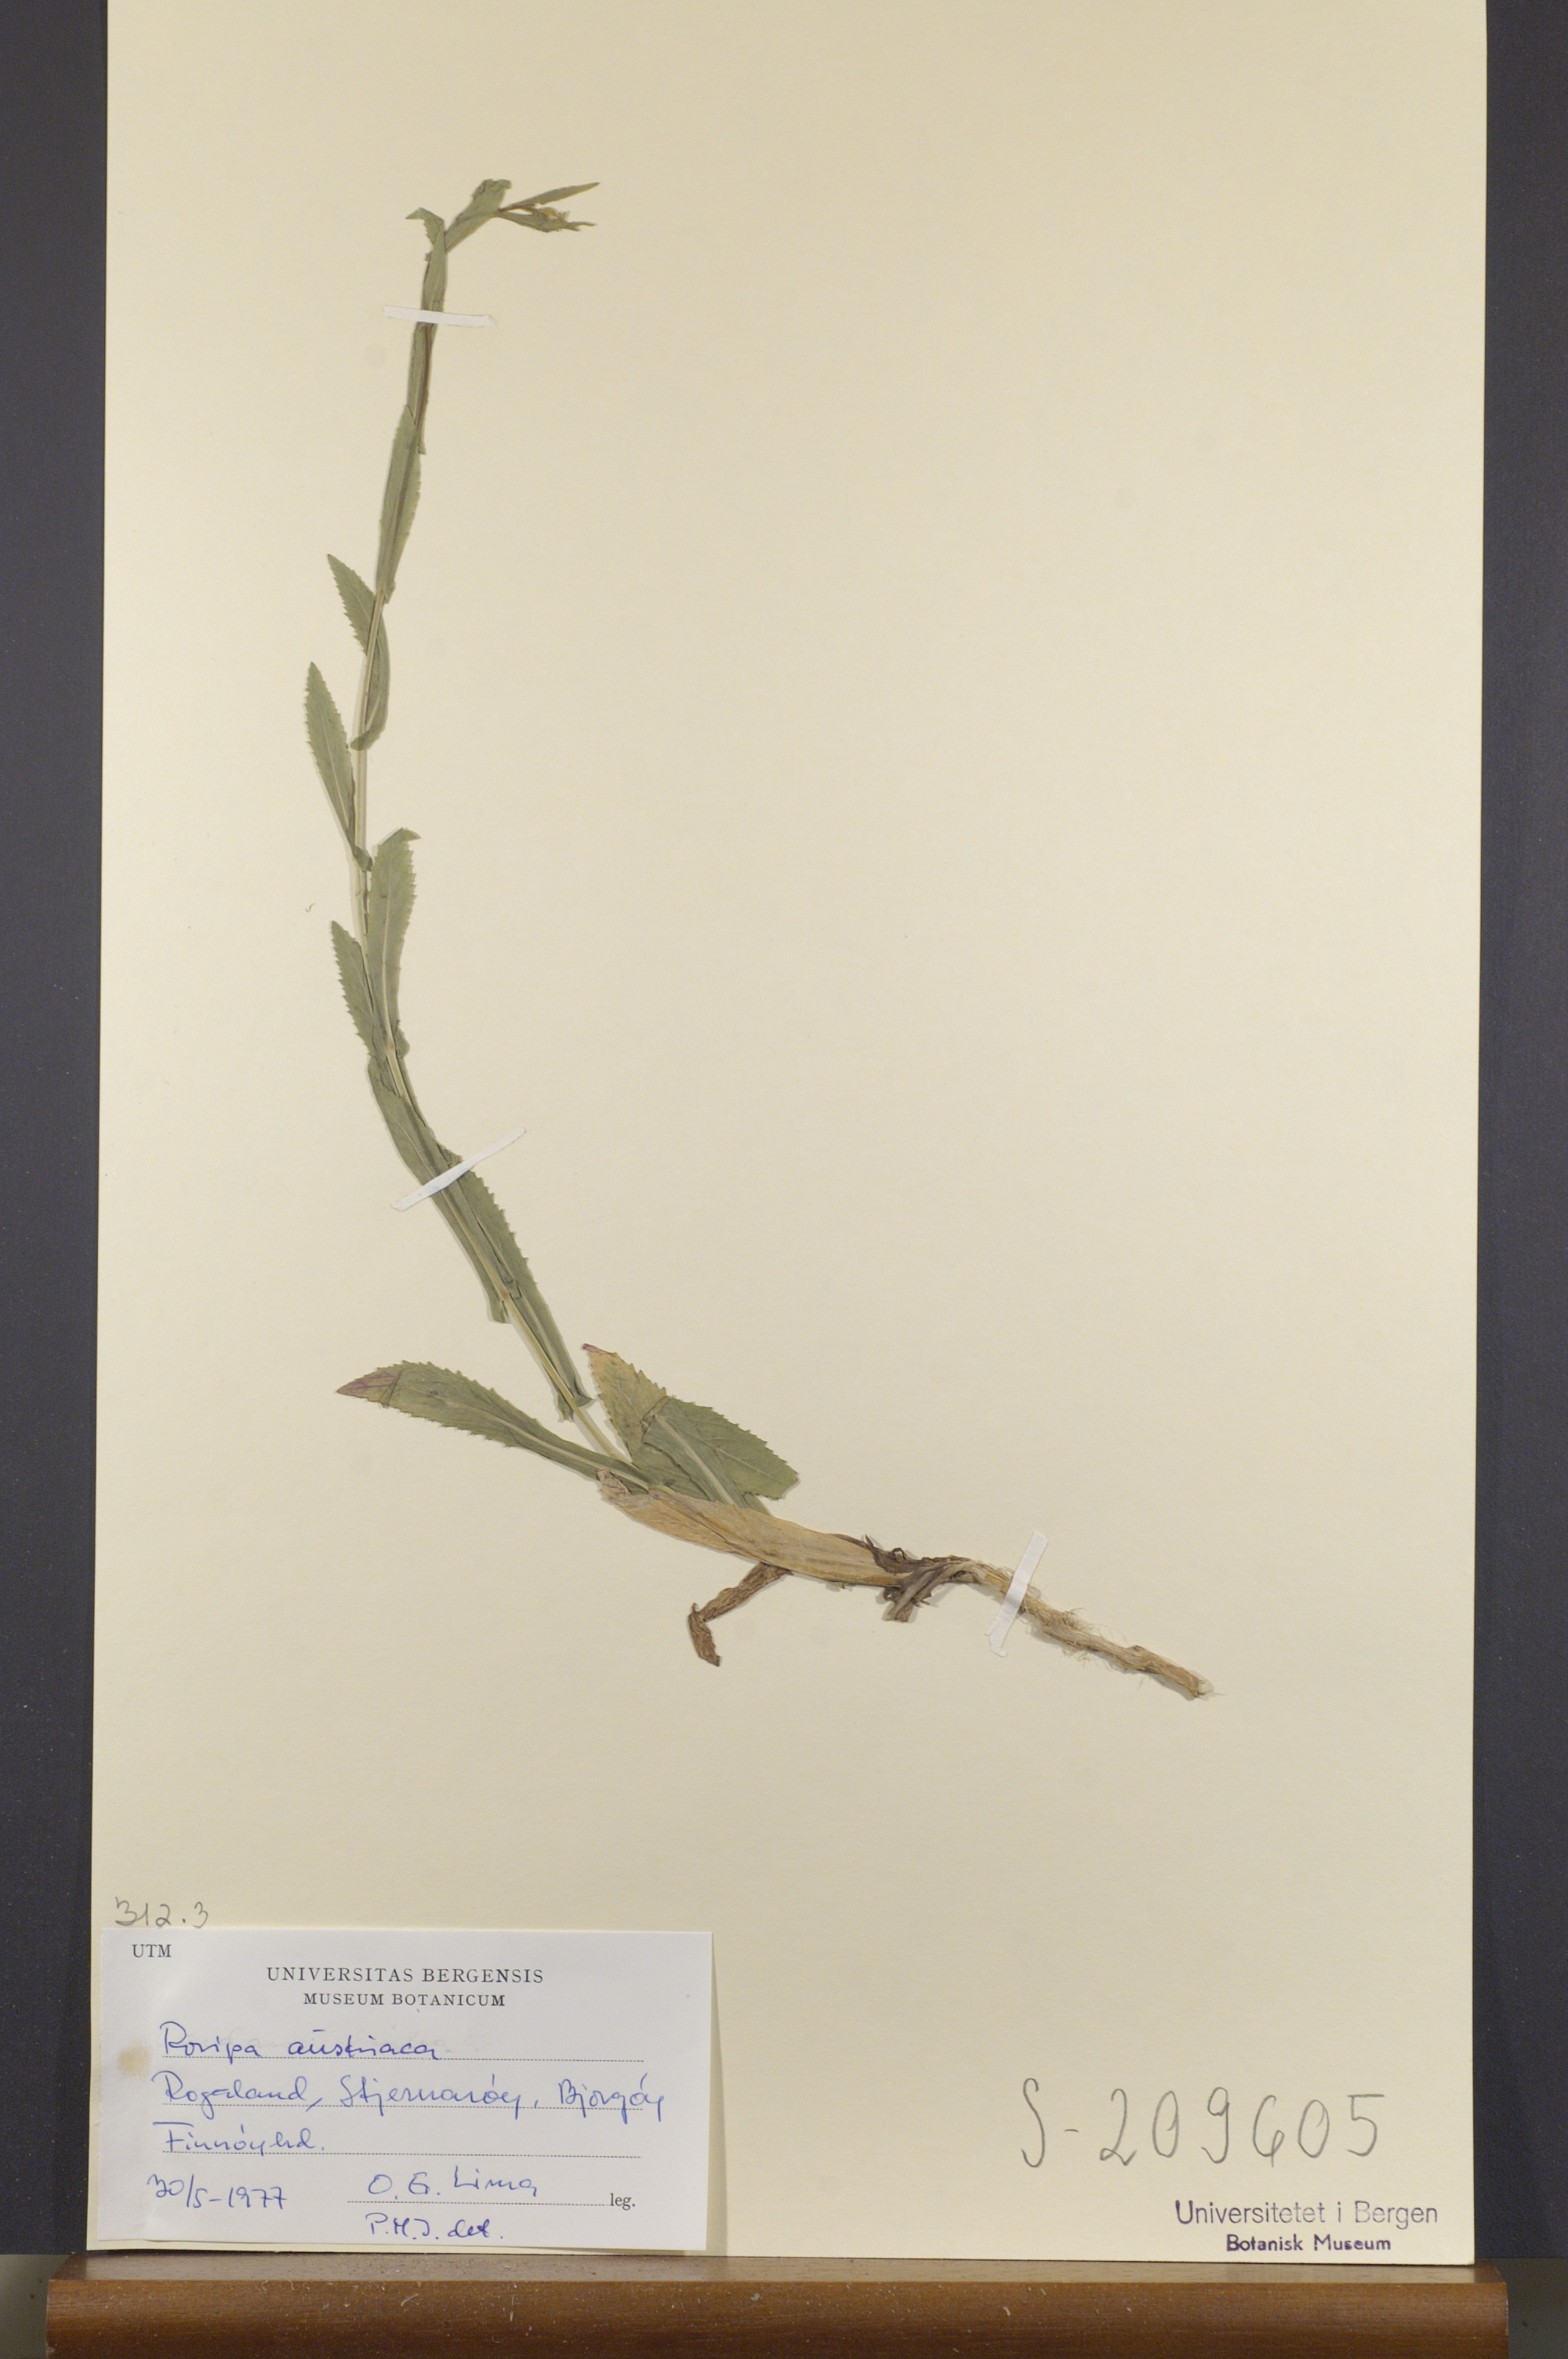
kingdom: Plantae
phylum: Tracheophyta
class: Magnoliopsida
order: Brassicales
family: Brassicaceae
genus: Rorippa
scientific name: Rorippa austriaca
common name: Austrian yellow-cress
